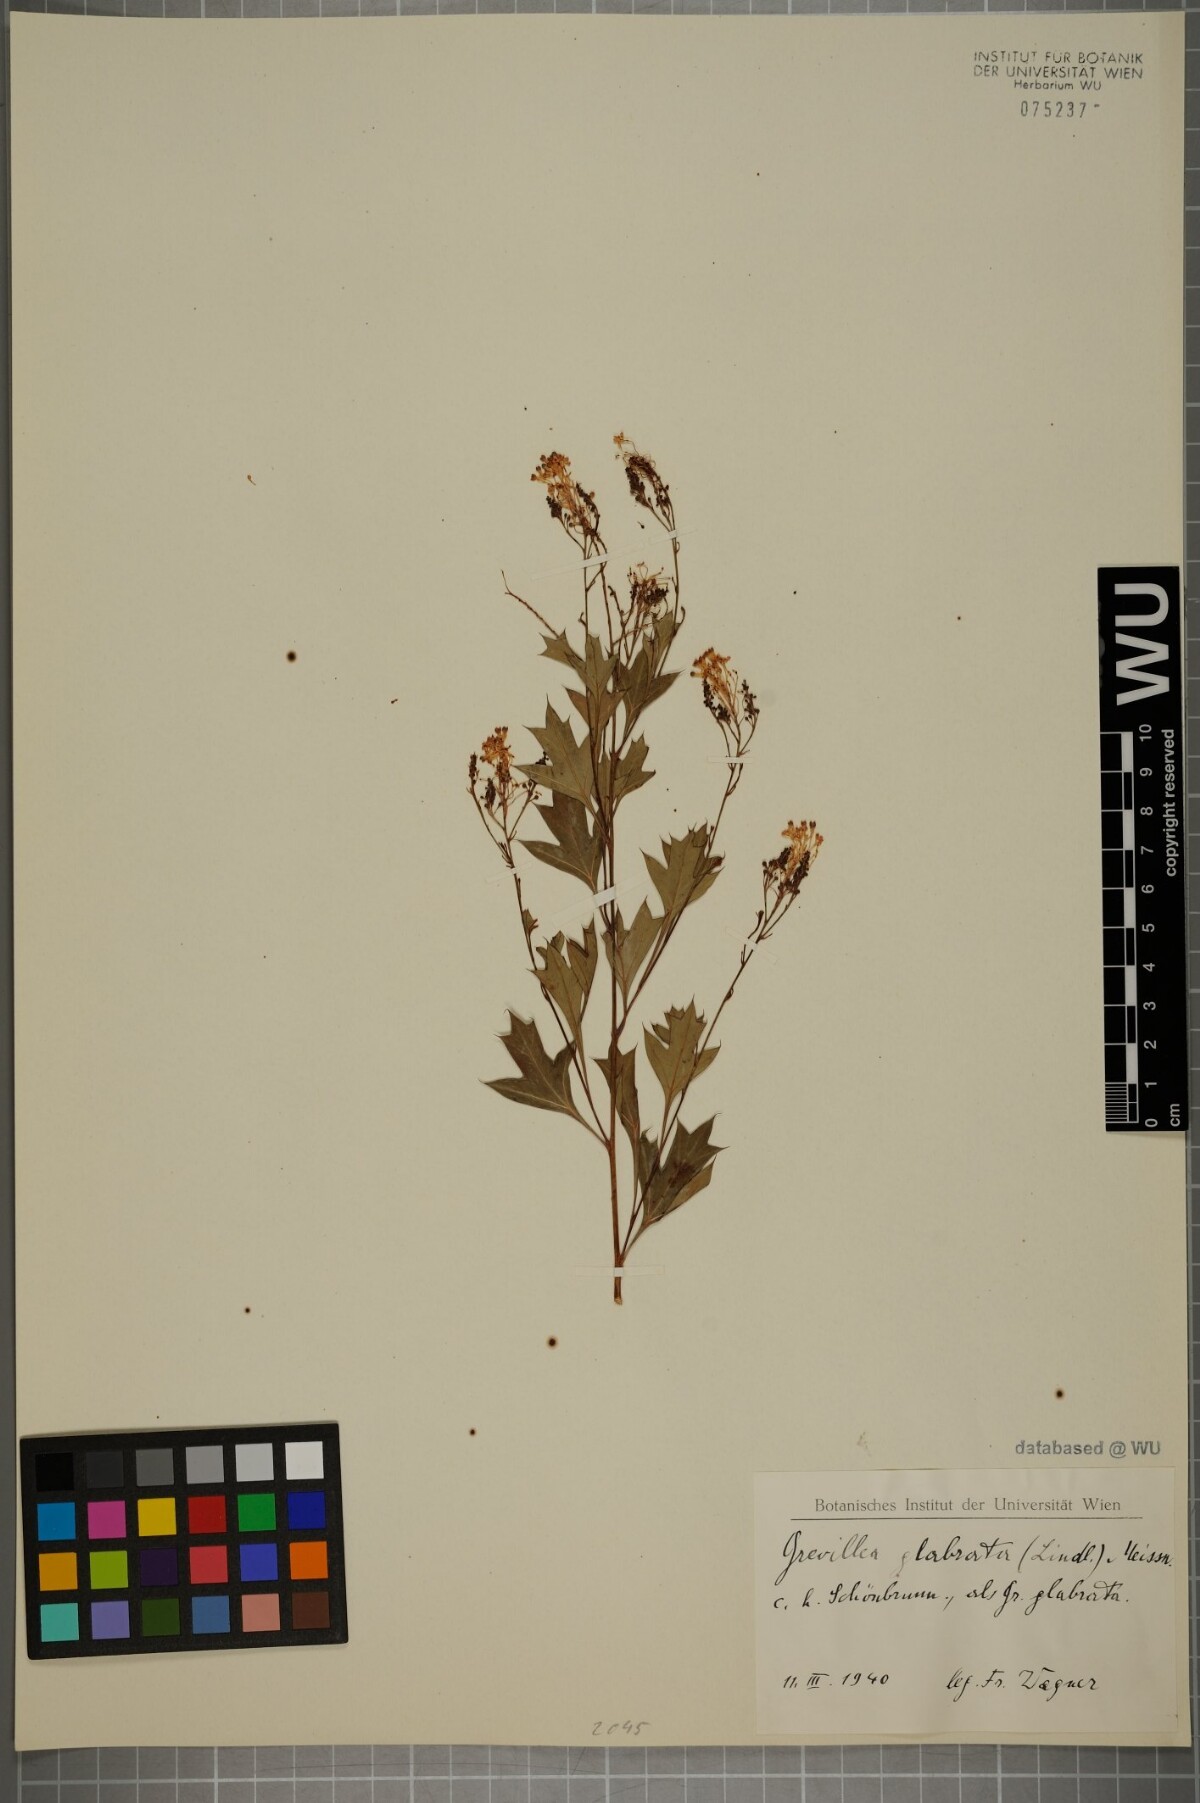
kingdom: Plantae
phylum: Tracheophyta
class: Magnoliopsida
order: Proteales
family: Proteaceae
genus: Grevillea
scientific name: Grevillea manglesii
